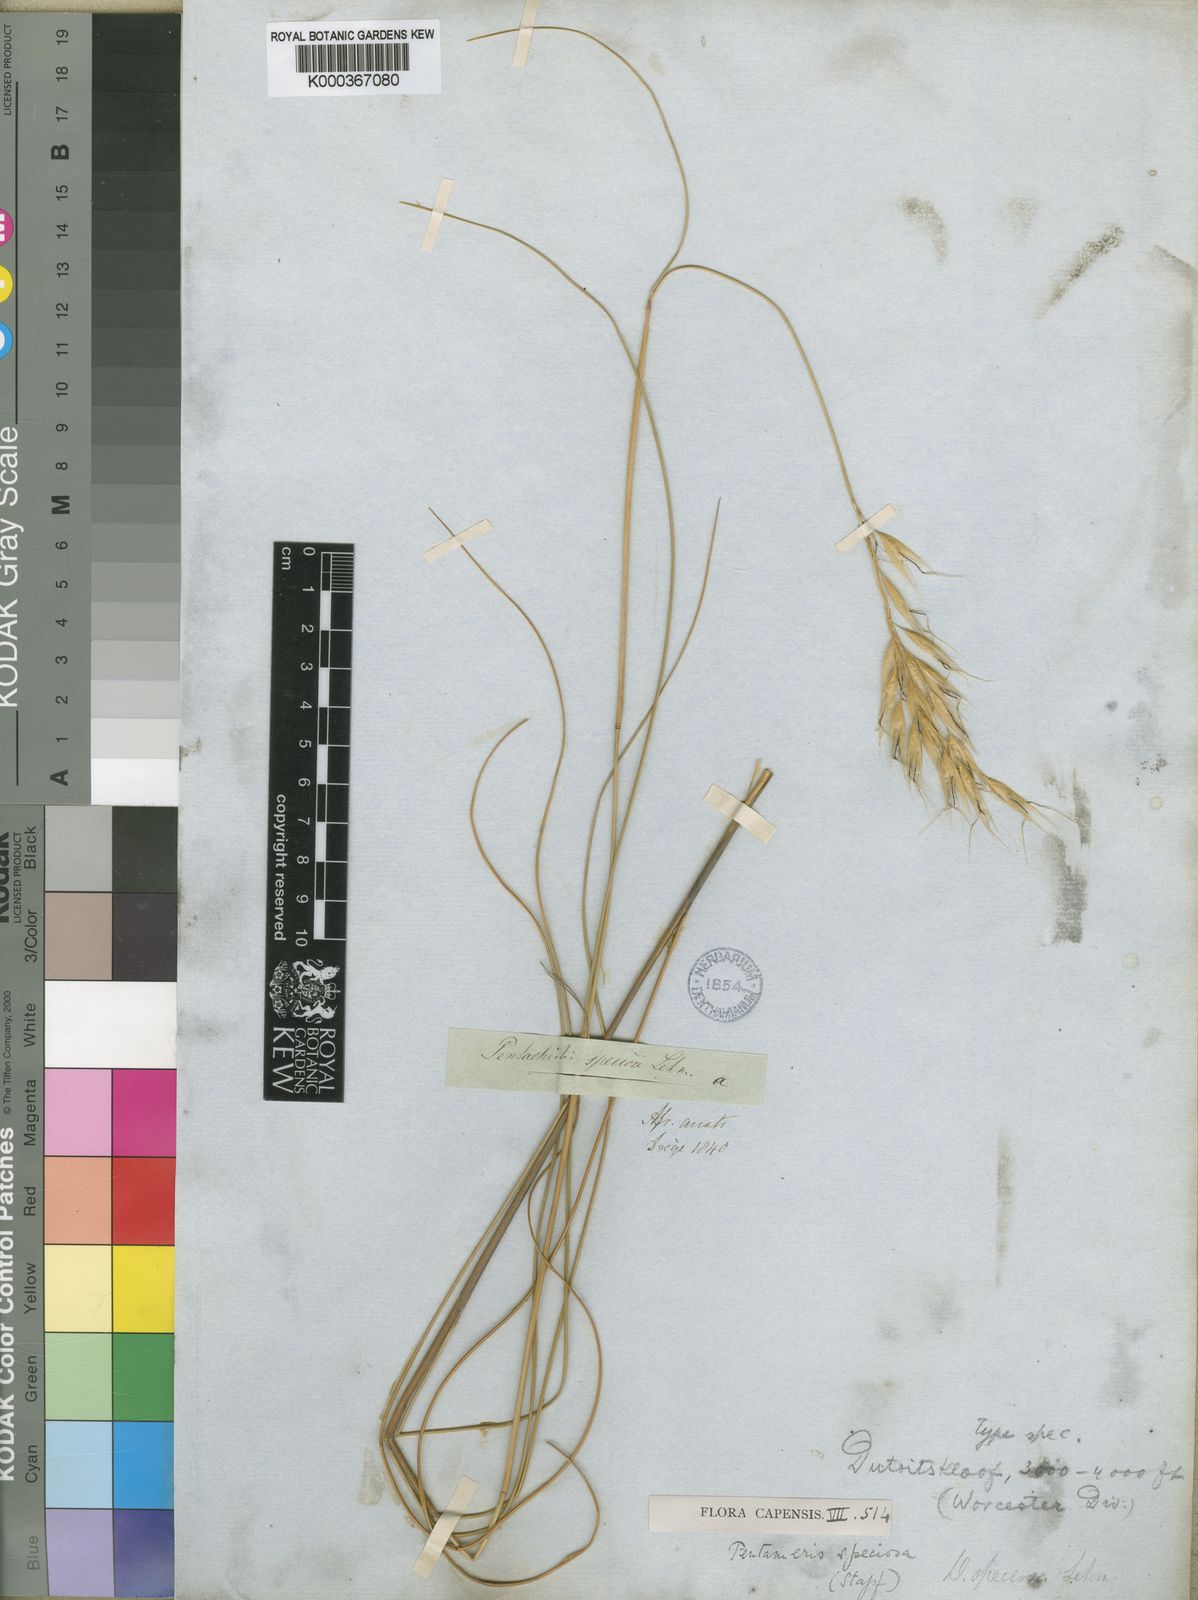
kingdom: Plantae
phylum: Tracheophyta
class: Liliopsida
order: Poales
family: Poaceae
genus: Pentameris
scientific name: Pentameris macrocalycina
